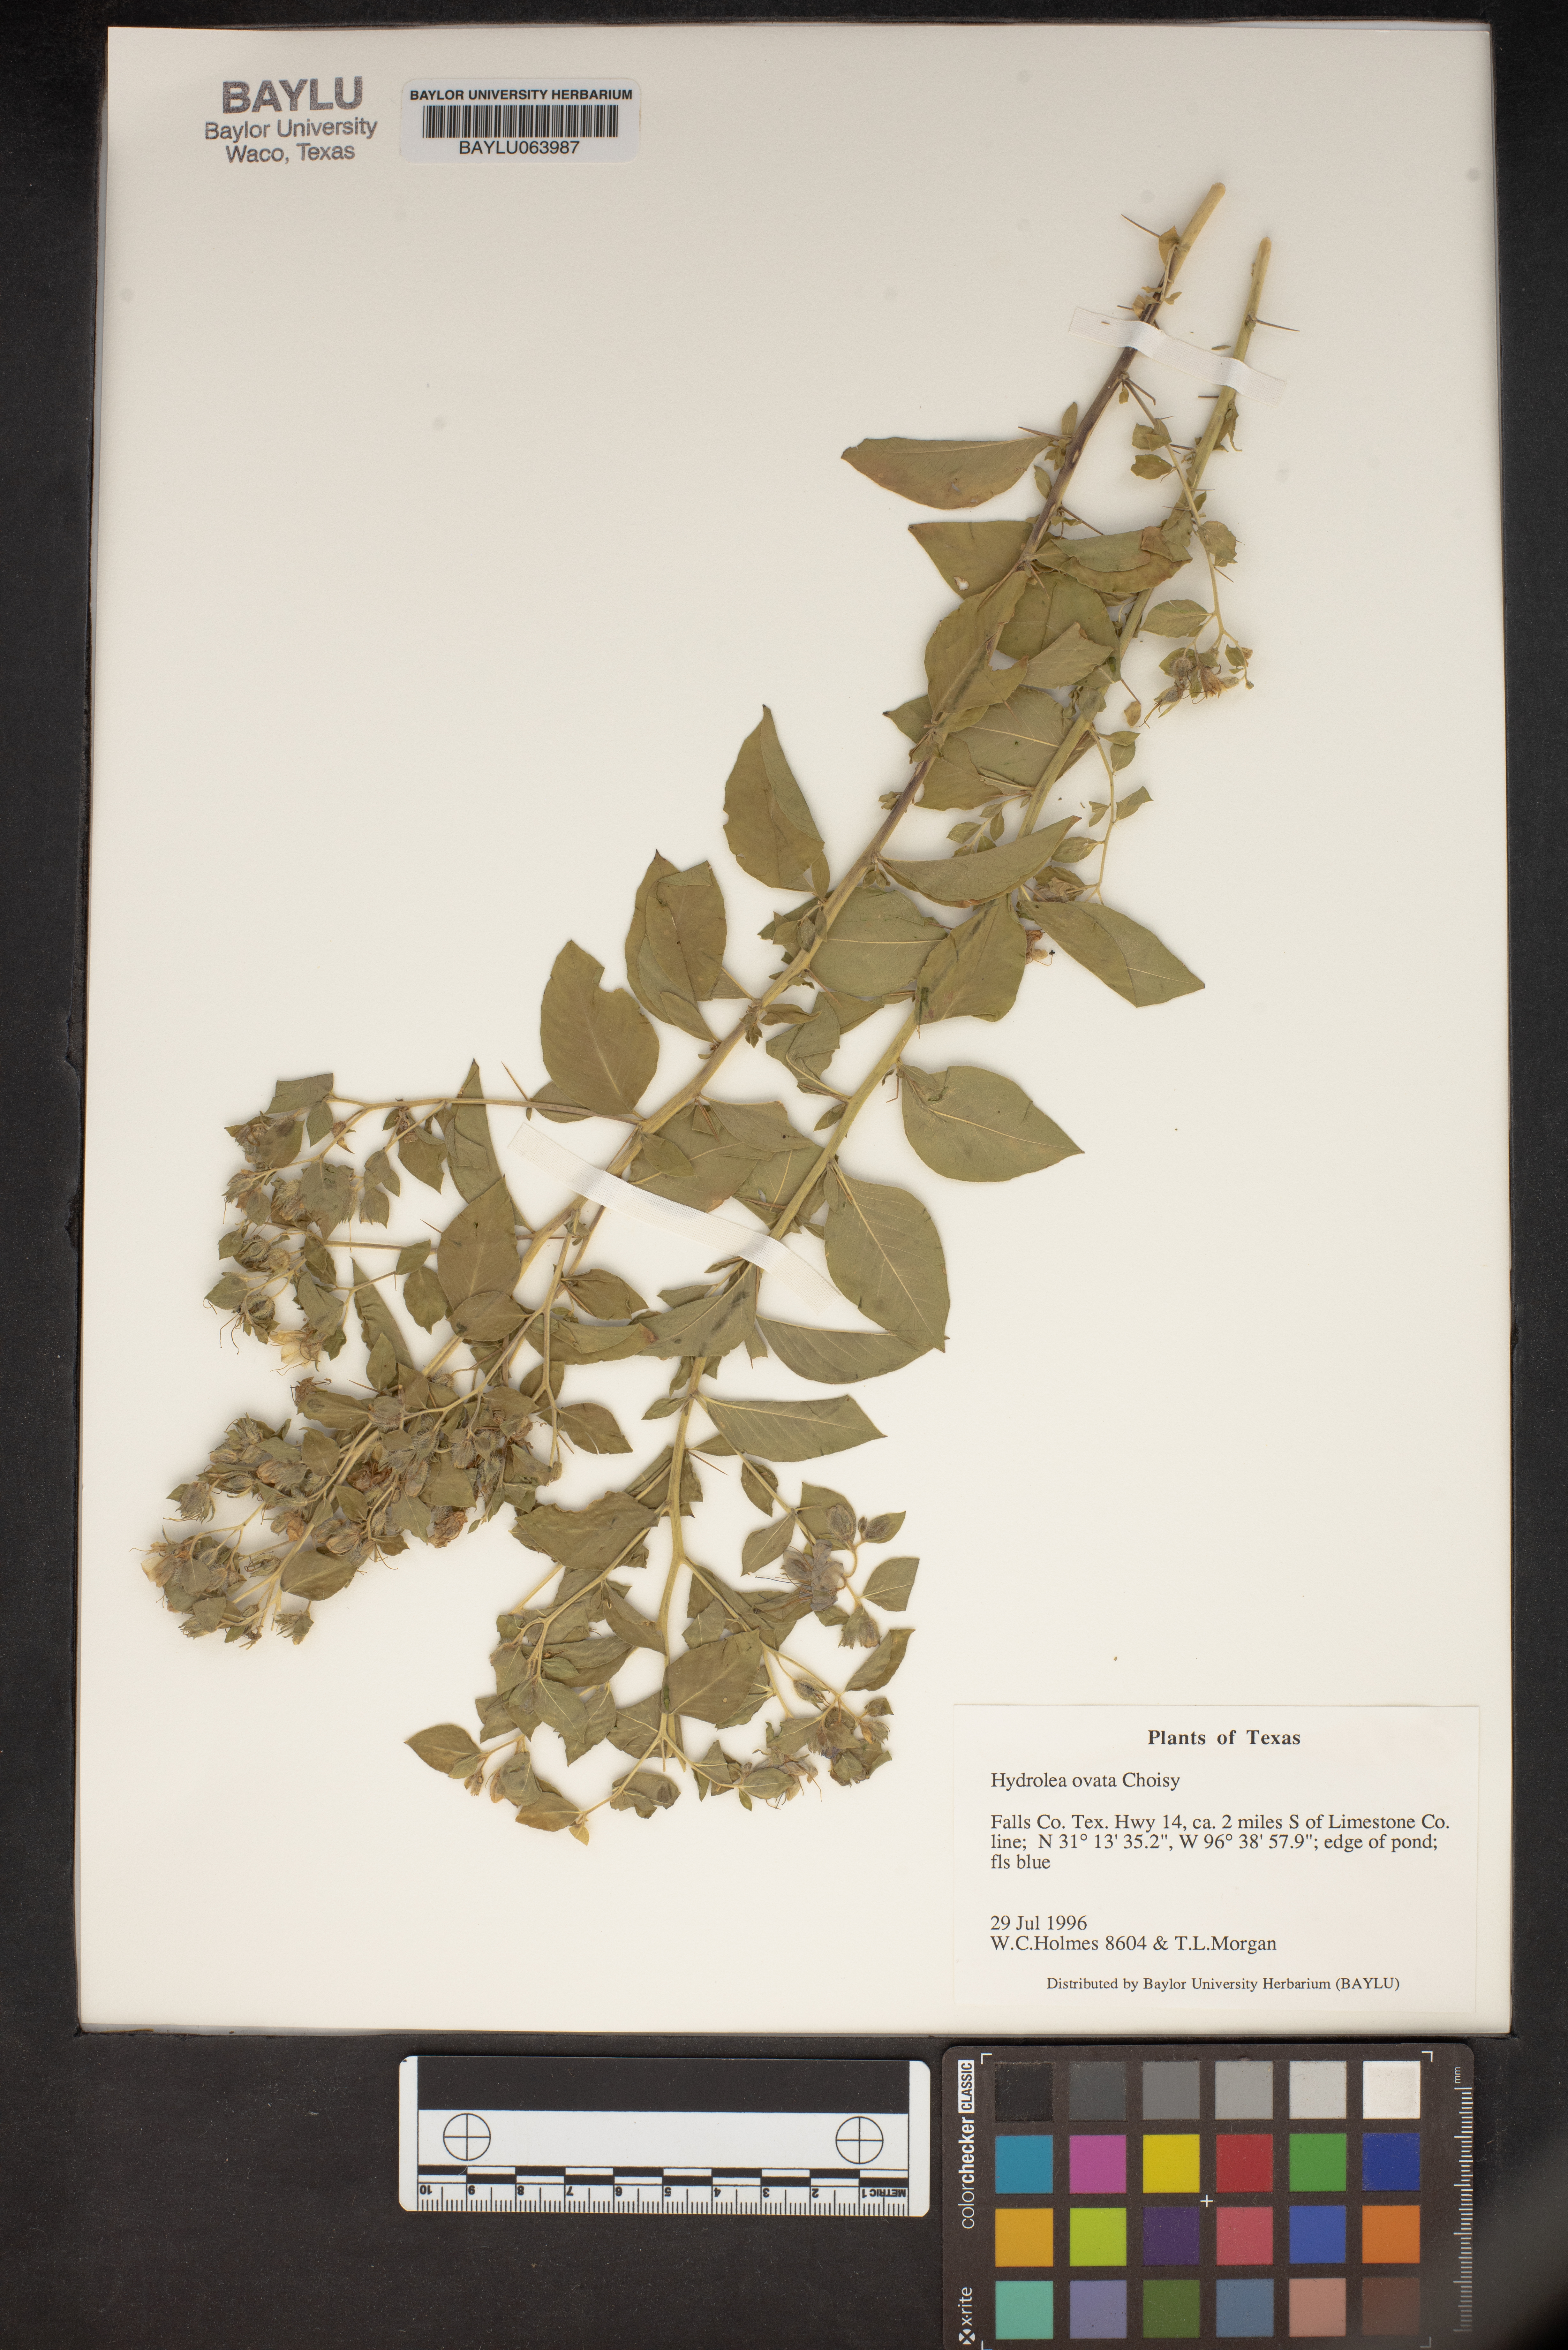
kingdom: Plantae
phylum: Tracheophyta
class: Magnoliopsida
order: Solanales
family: Hydroleaceae
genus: Hydrolea
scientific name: Hydrolea ovata
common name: Ovate false fiddleleaf
